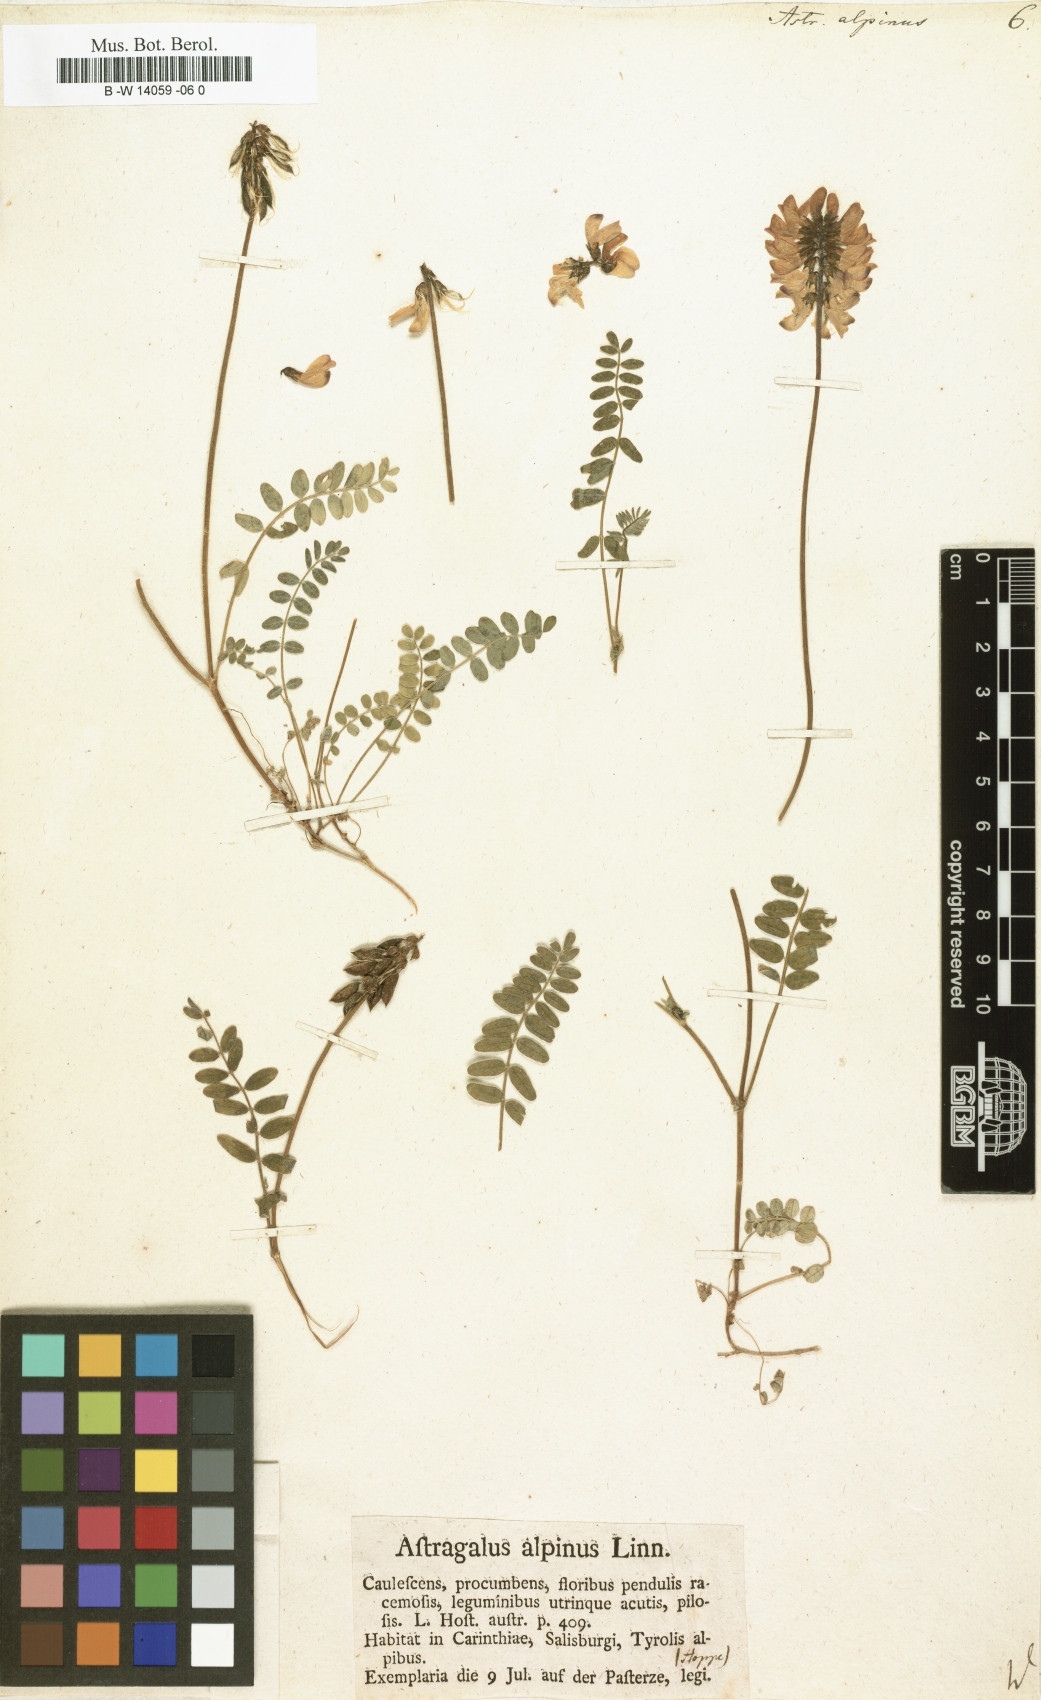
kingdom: Plantae
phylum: Tracheophyta
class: Magnoliopsida
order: Fabales
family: Fabaceae
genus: Astragalus
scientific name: Astragalus alpinus
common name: Alpine milk-vetch
